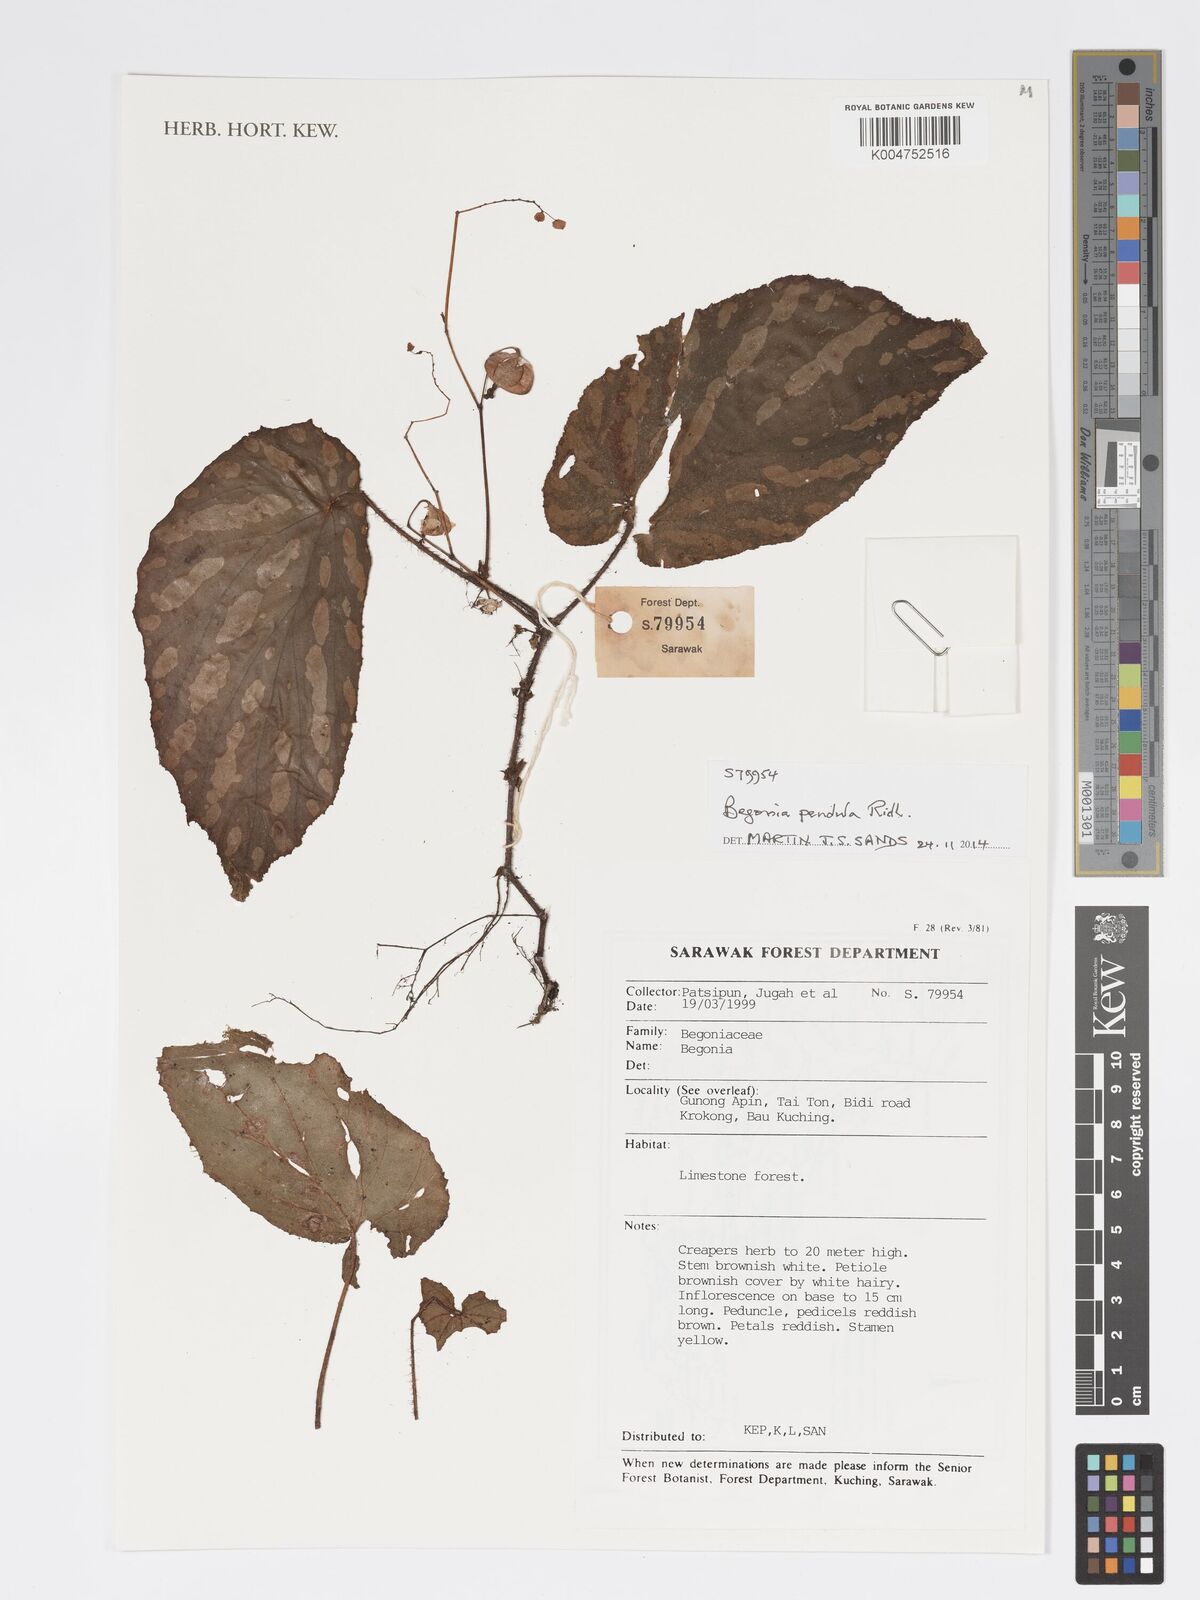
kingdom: Plantae
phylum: Tracheophyta
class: Magnoliopsida
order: Cucurbitales
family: Begoniaceae
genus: Begonia
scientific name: Begonia
